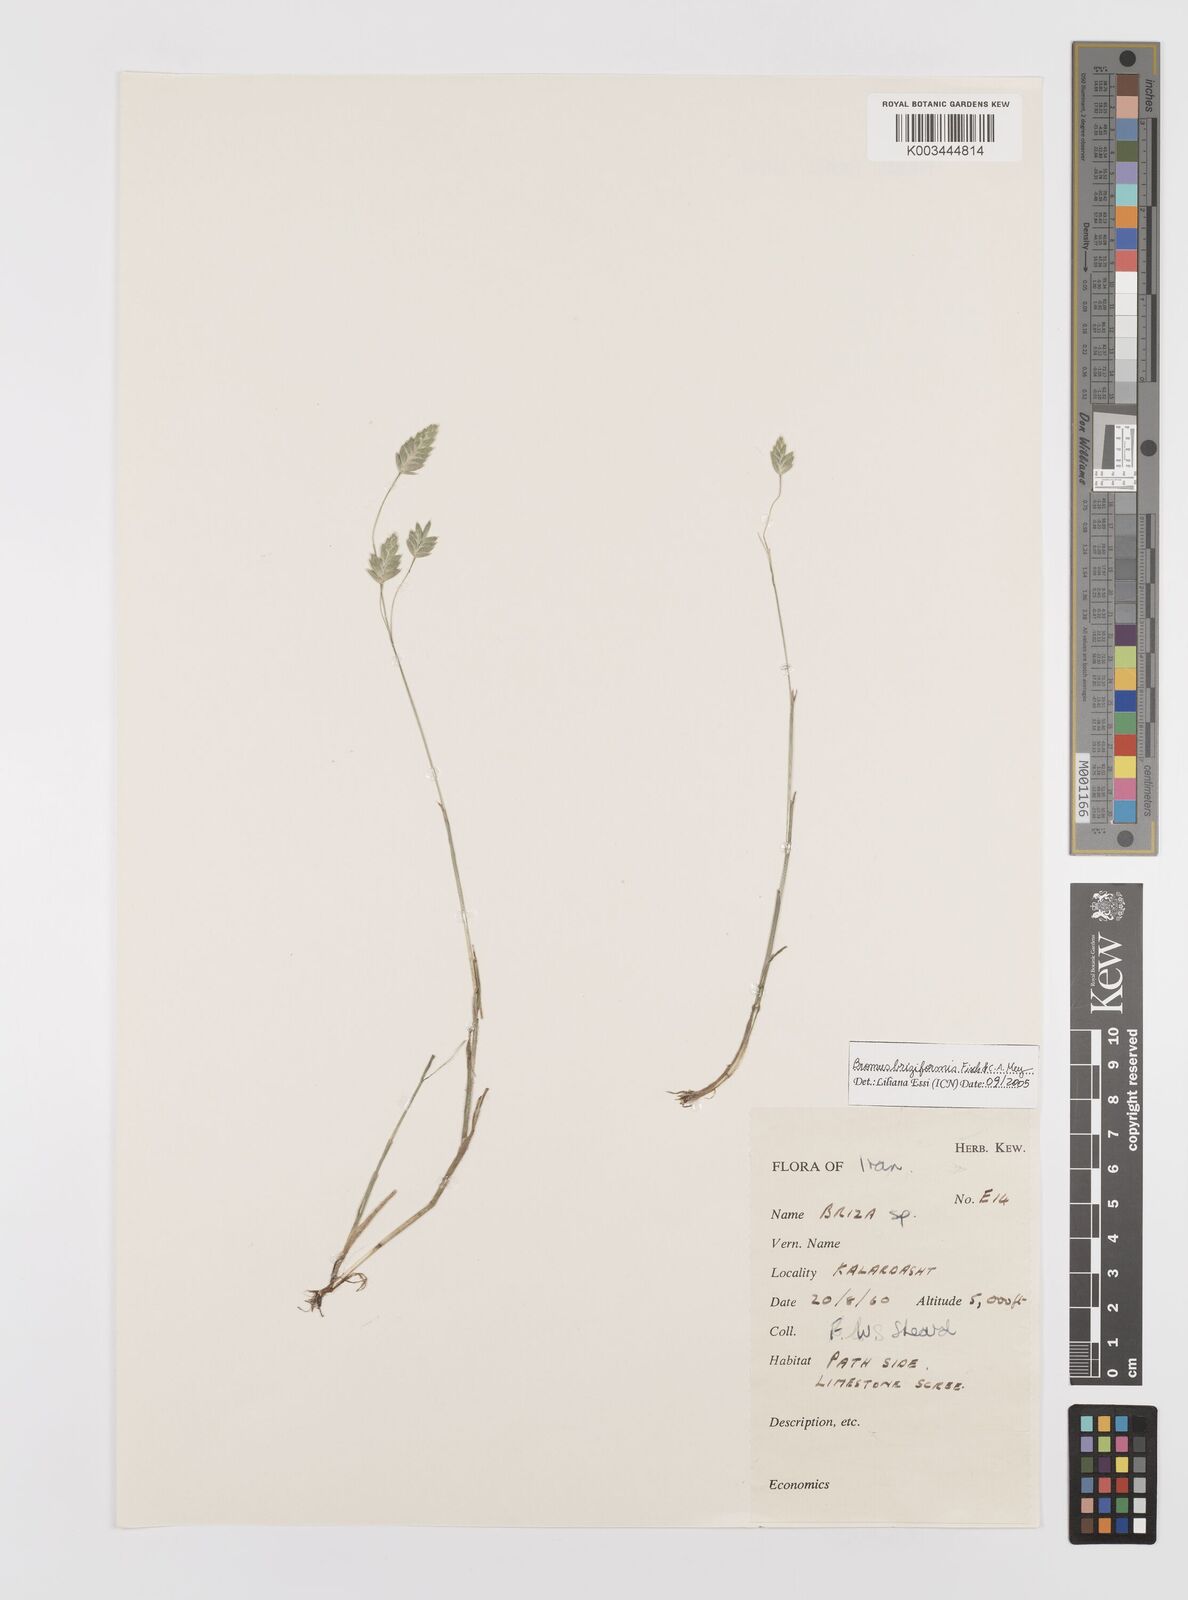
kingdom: Plantae
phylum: Tracheophyta
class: Liliopsida
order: Poales
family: Poaceae
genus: Bromus
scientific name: Bromus briziformis
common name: Rattlesnake brome
